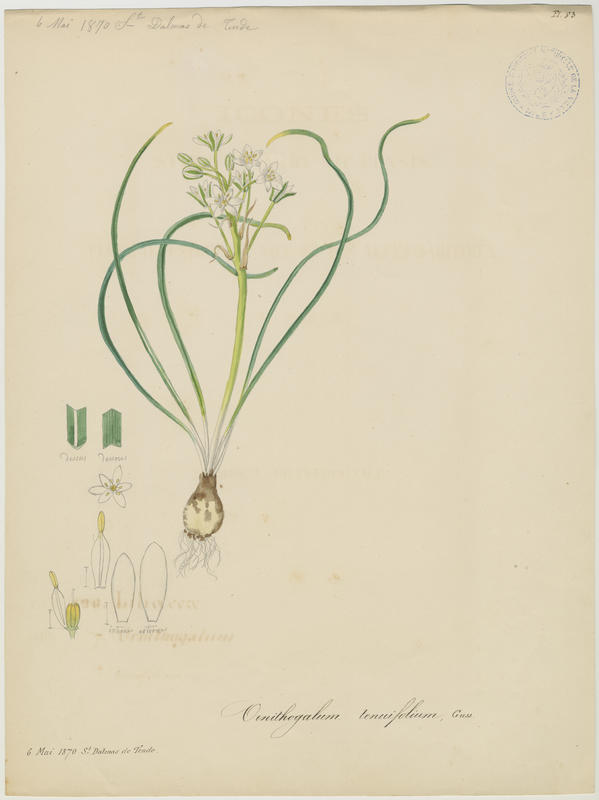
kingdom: Plantae
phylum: Tracheophyta
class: Liliopsida
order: Asparagales
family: Asparagaceae
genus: Ornithogalum
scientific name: Ornithogalum gussonei
